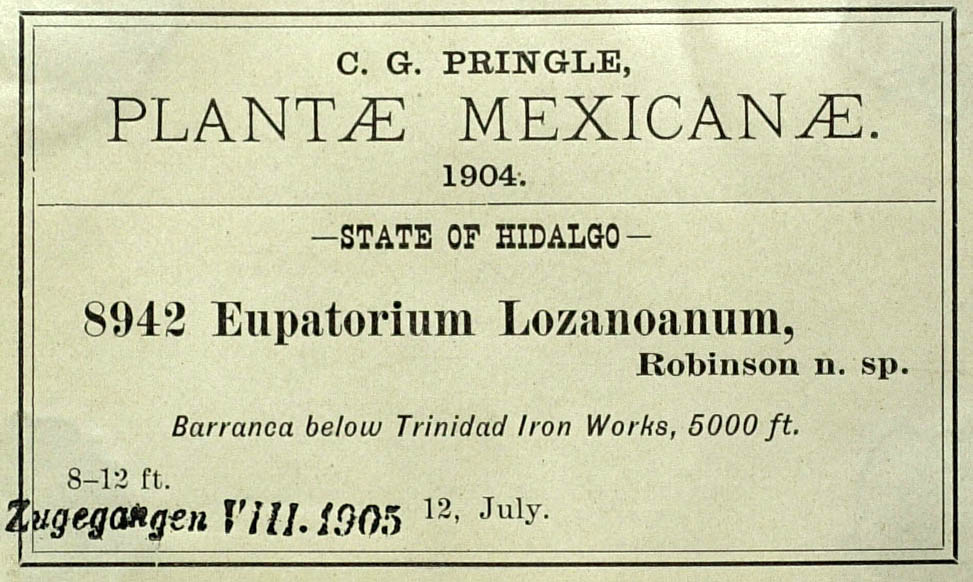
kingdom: Plantae
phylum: Tracheophyta
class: Magnoliopsida
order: Asterales
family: Asteraceae
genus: Critonia
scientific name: Critonia lozanoana
